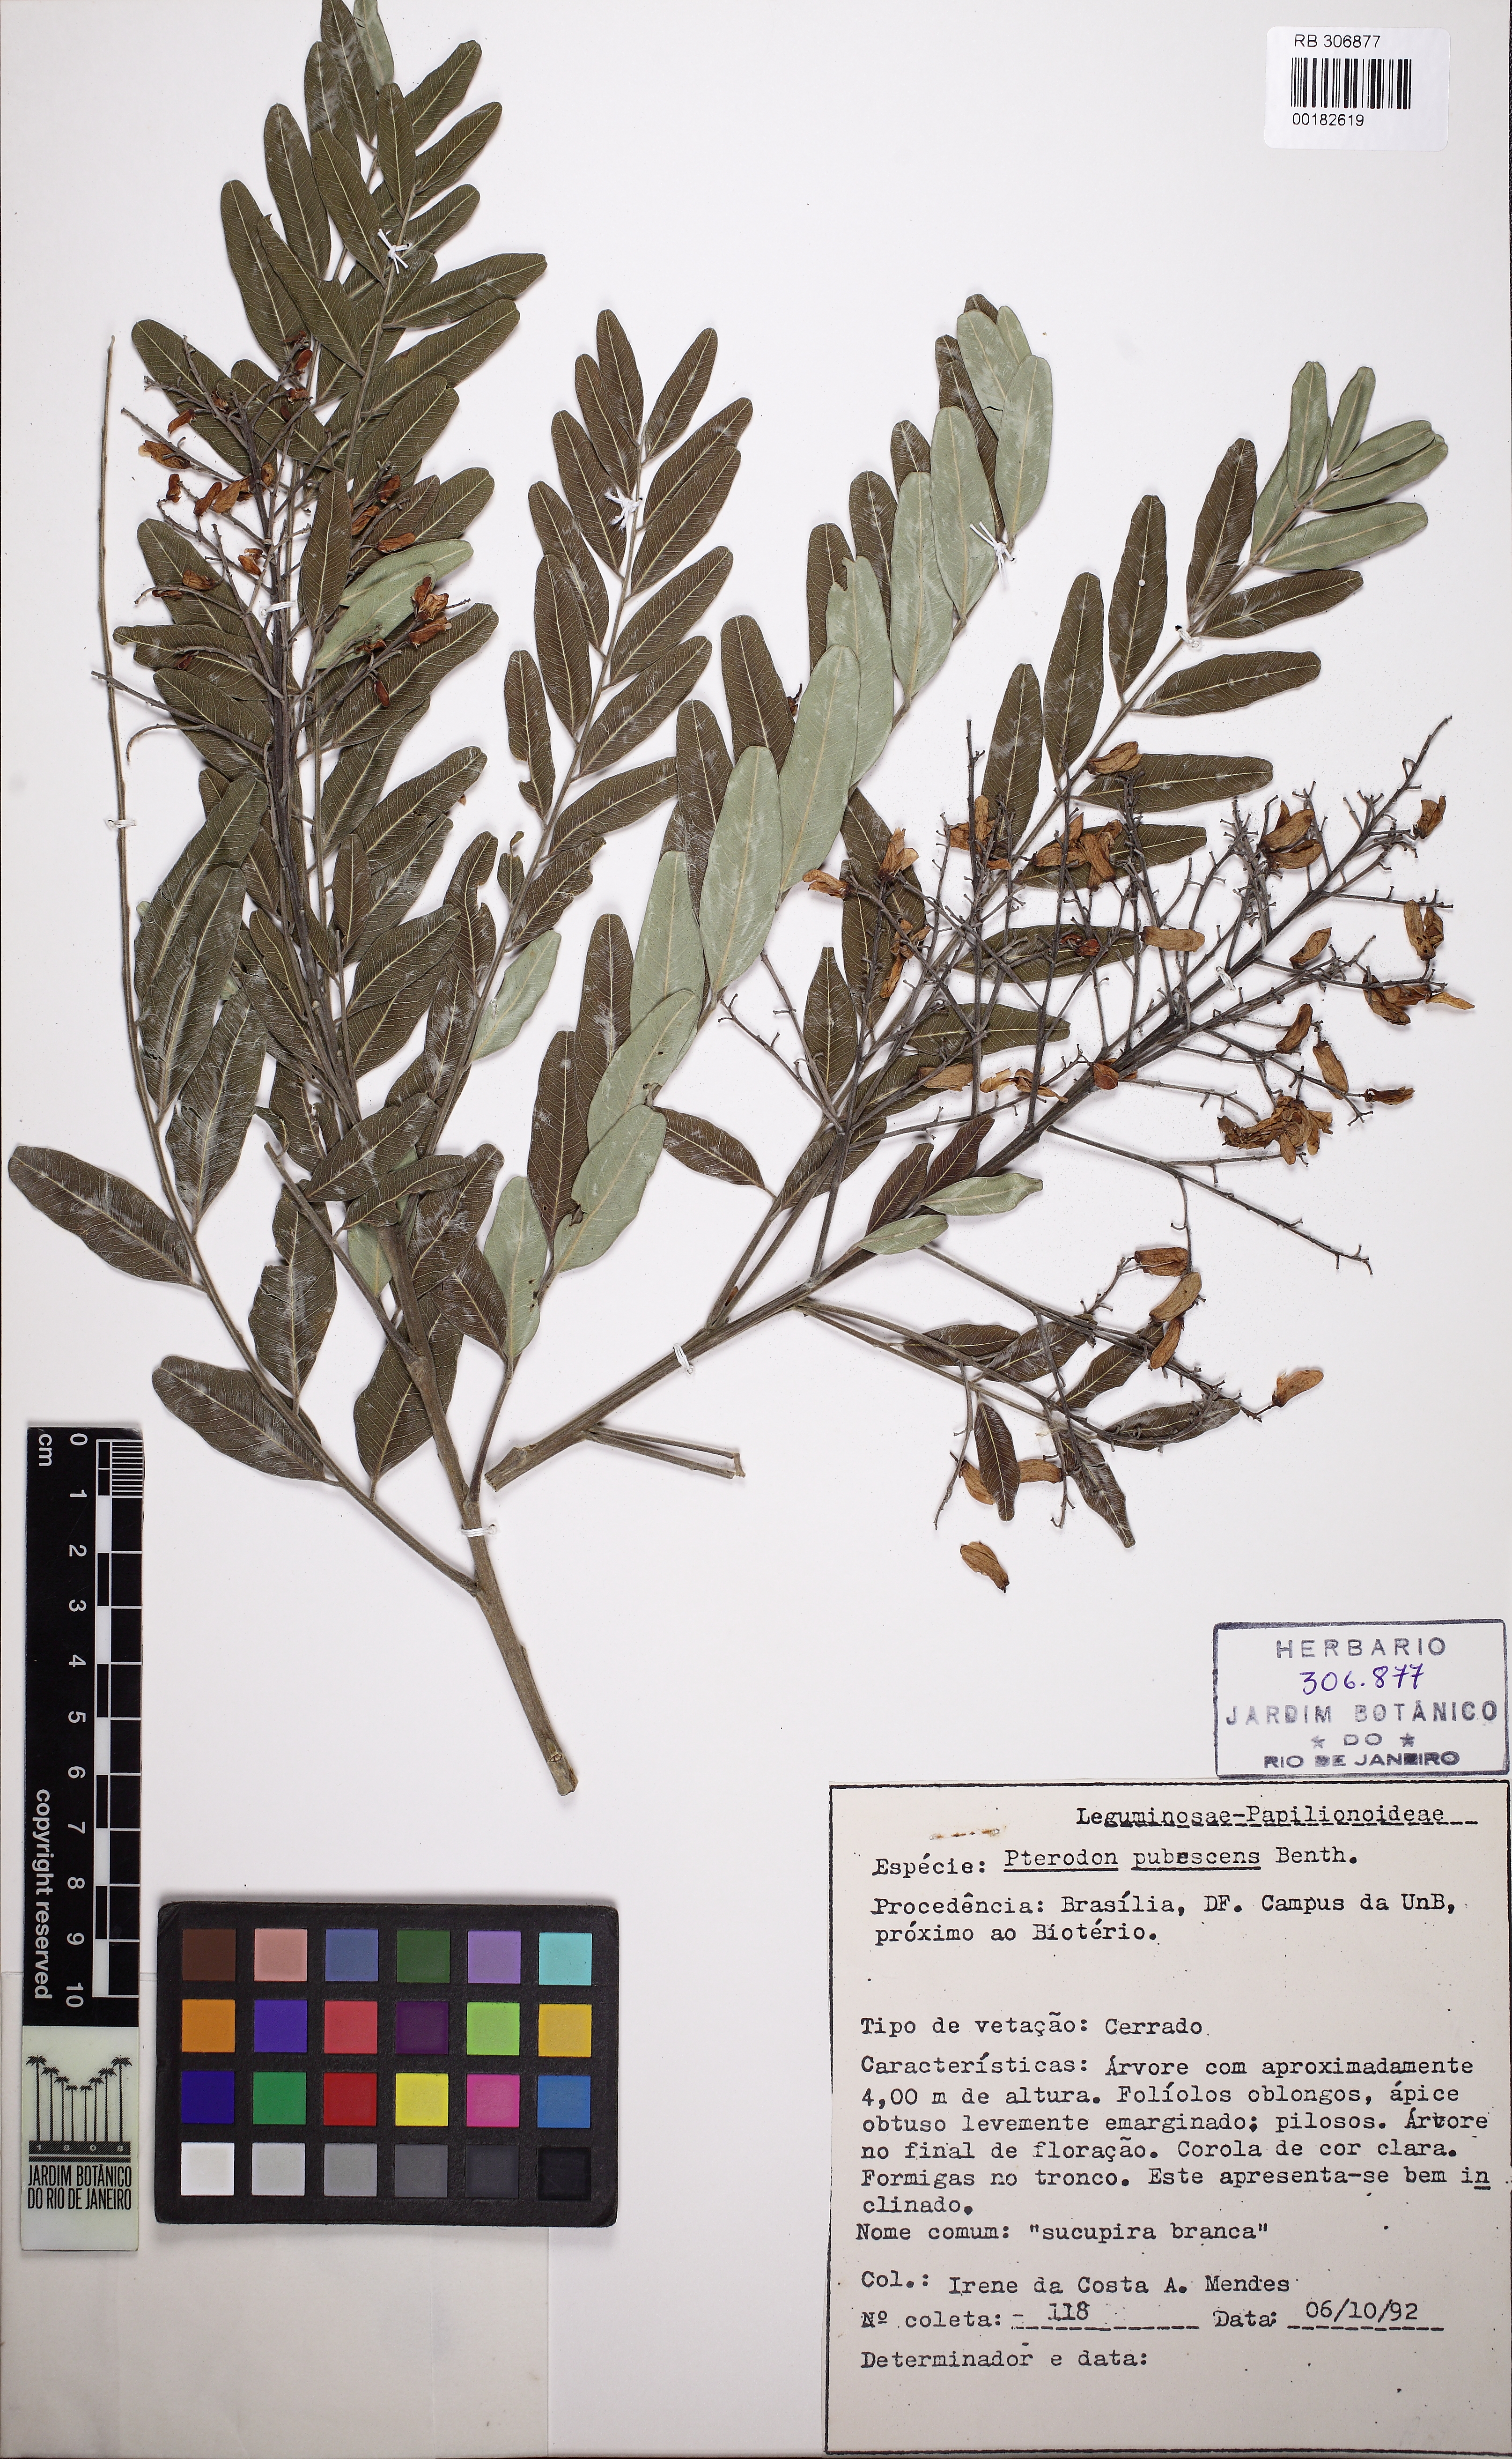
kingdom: Plantae
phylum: Tracheophyta
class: Magnoliopsida
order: Fabales
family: Fabaceae
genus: Pterodon
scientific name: Pterodon emarginatus
